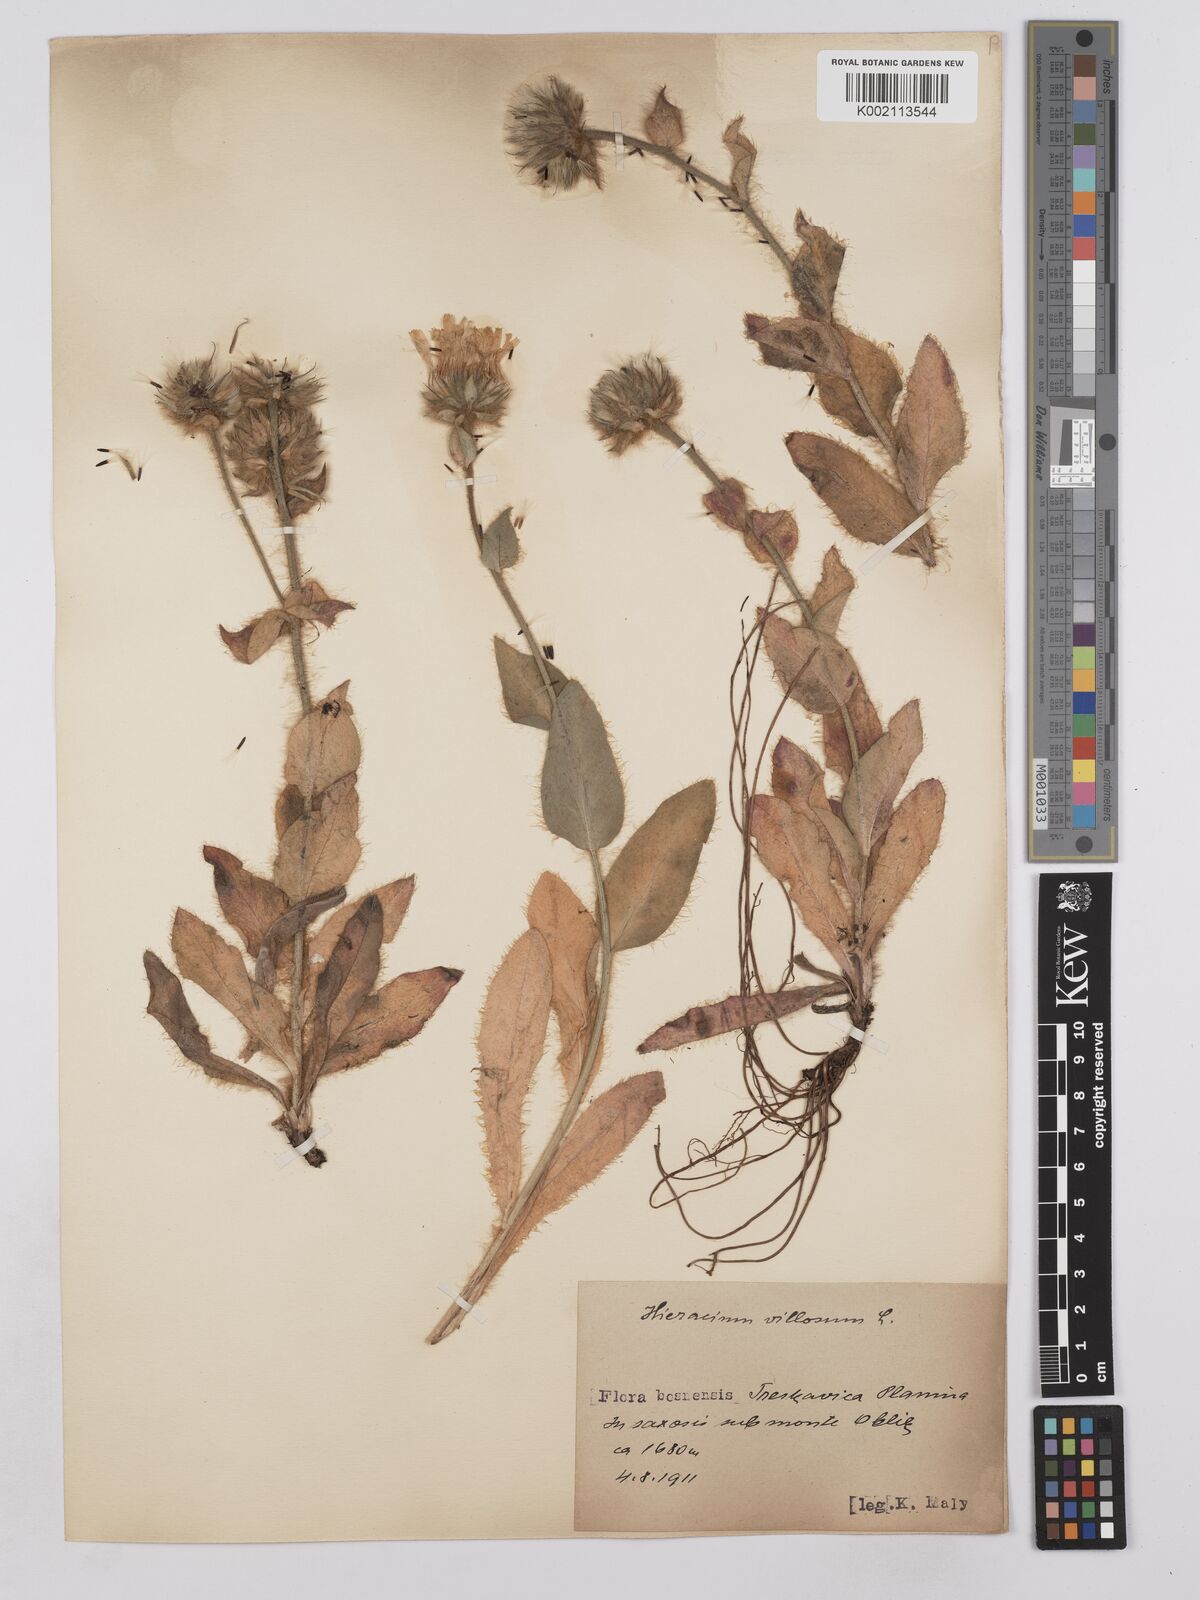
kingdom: Plantae
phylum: Tracheophyta
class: Magnoliopsida
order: Asterales
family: Asteraceae
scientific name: Asteraceae
